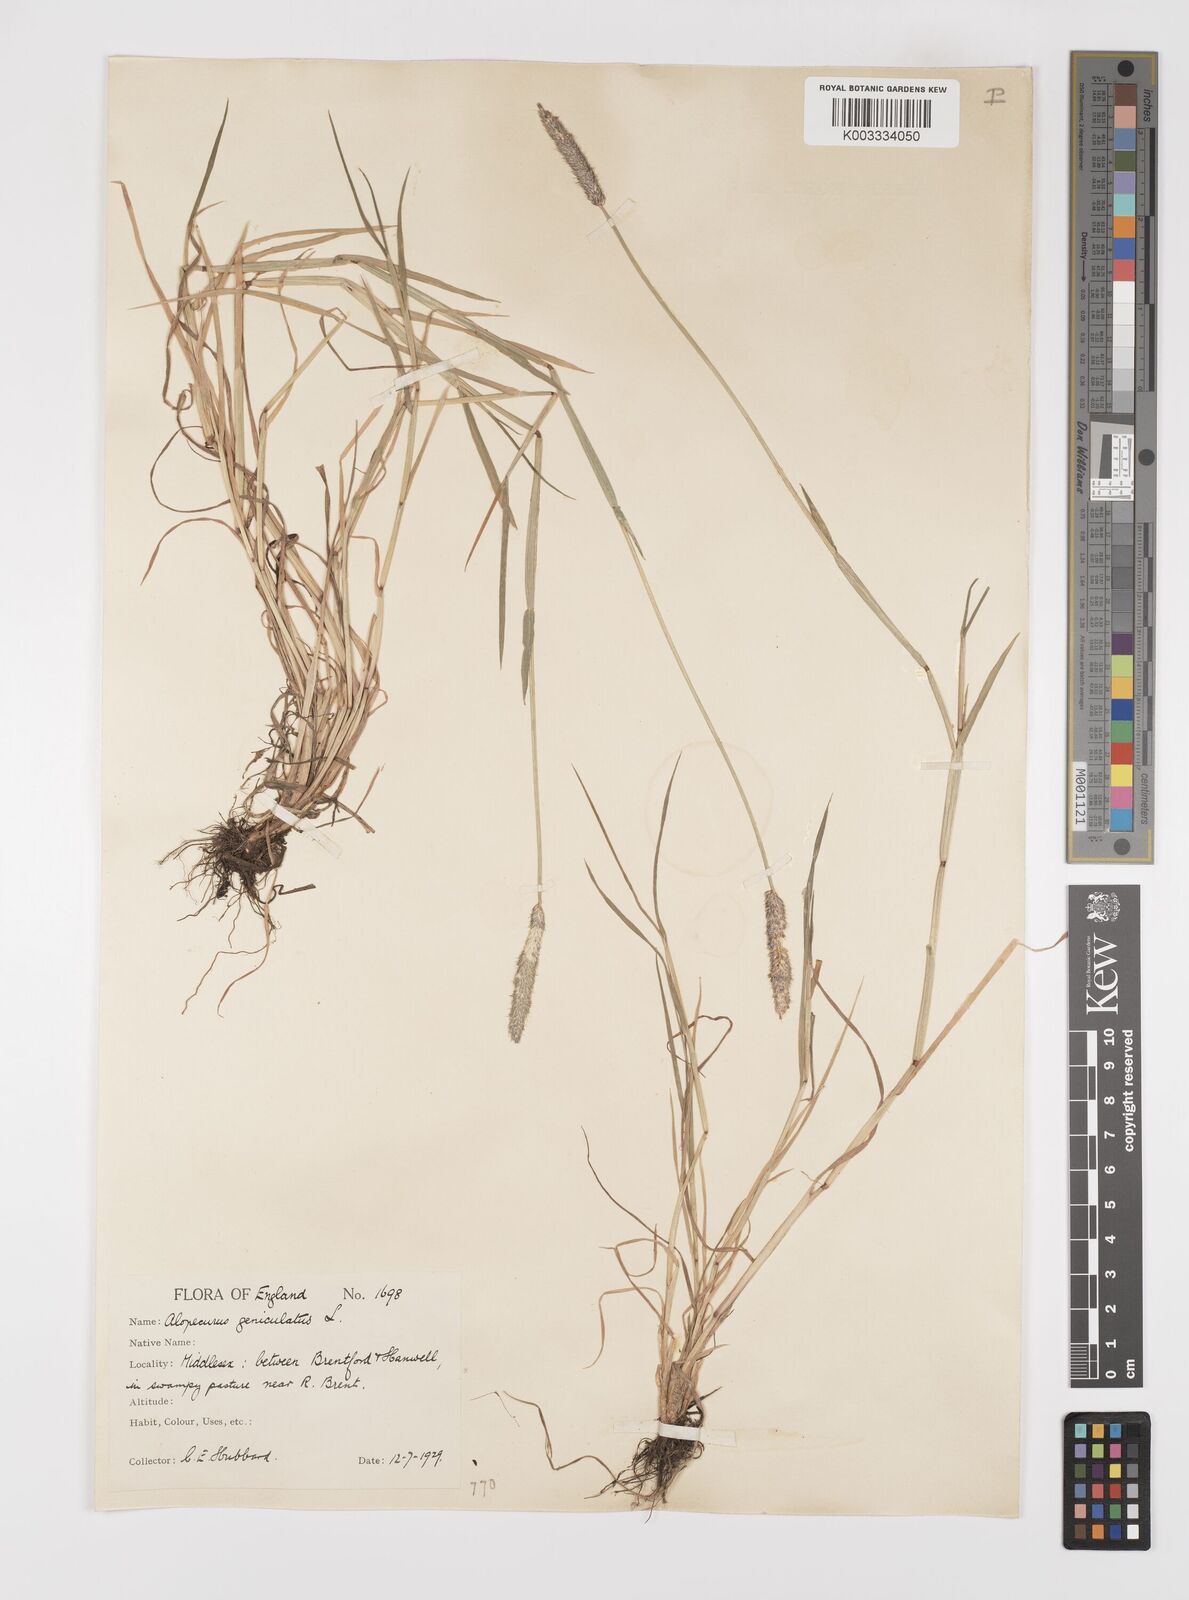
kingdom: Plantae
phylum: Tracheophyta
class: Liliopsida
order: Poales
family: Poaceae
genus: Alopecurus
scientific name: Alopecurus geniculatus
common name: Water foxtail
